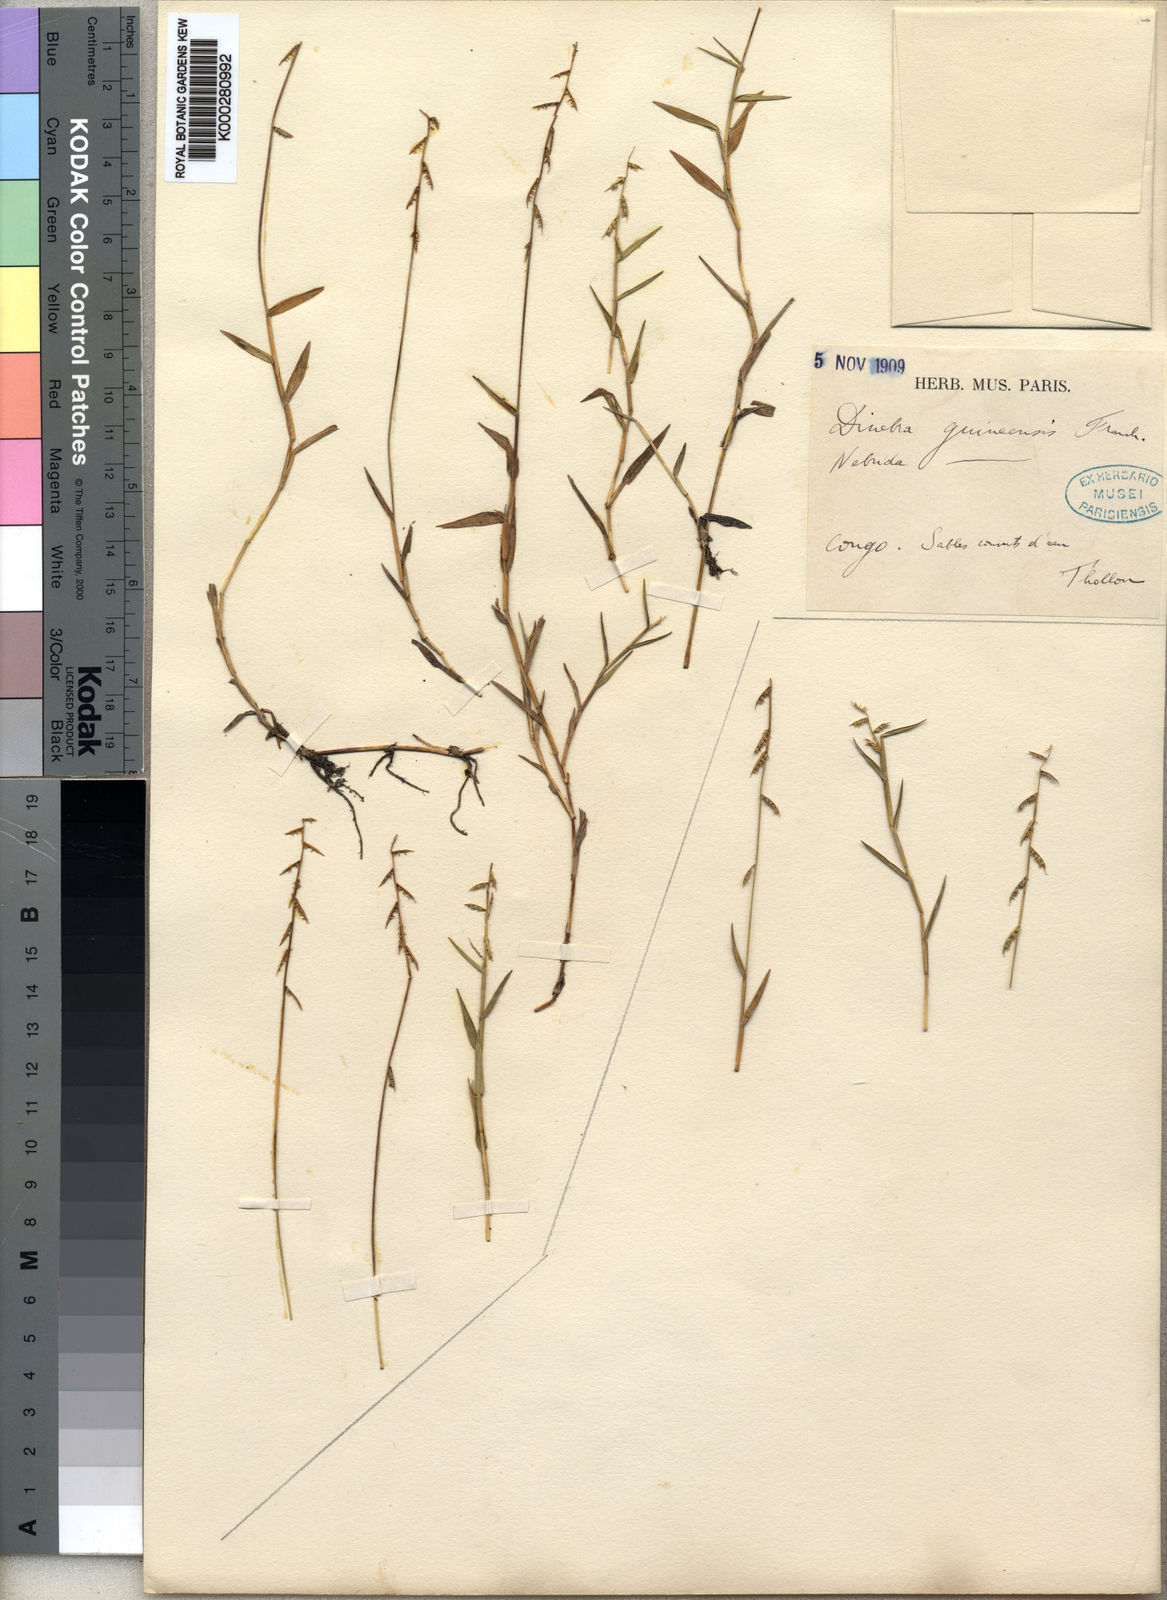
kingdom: Plantae
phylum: Tracheophyta
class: Liliopsida
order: Poales
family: Poaceae
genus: Heteranthoecia
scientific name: Heteranthoecia guineensis
